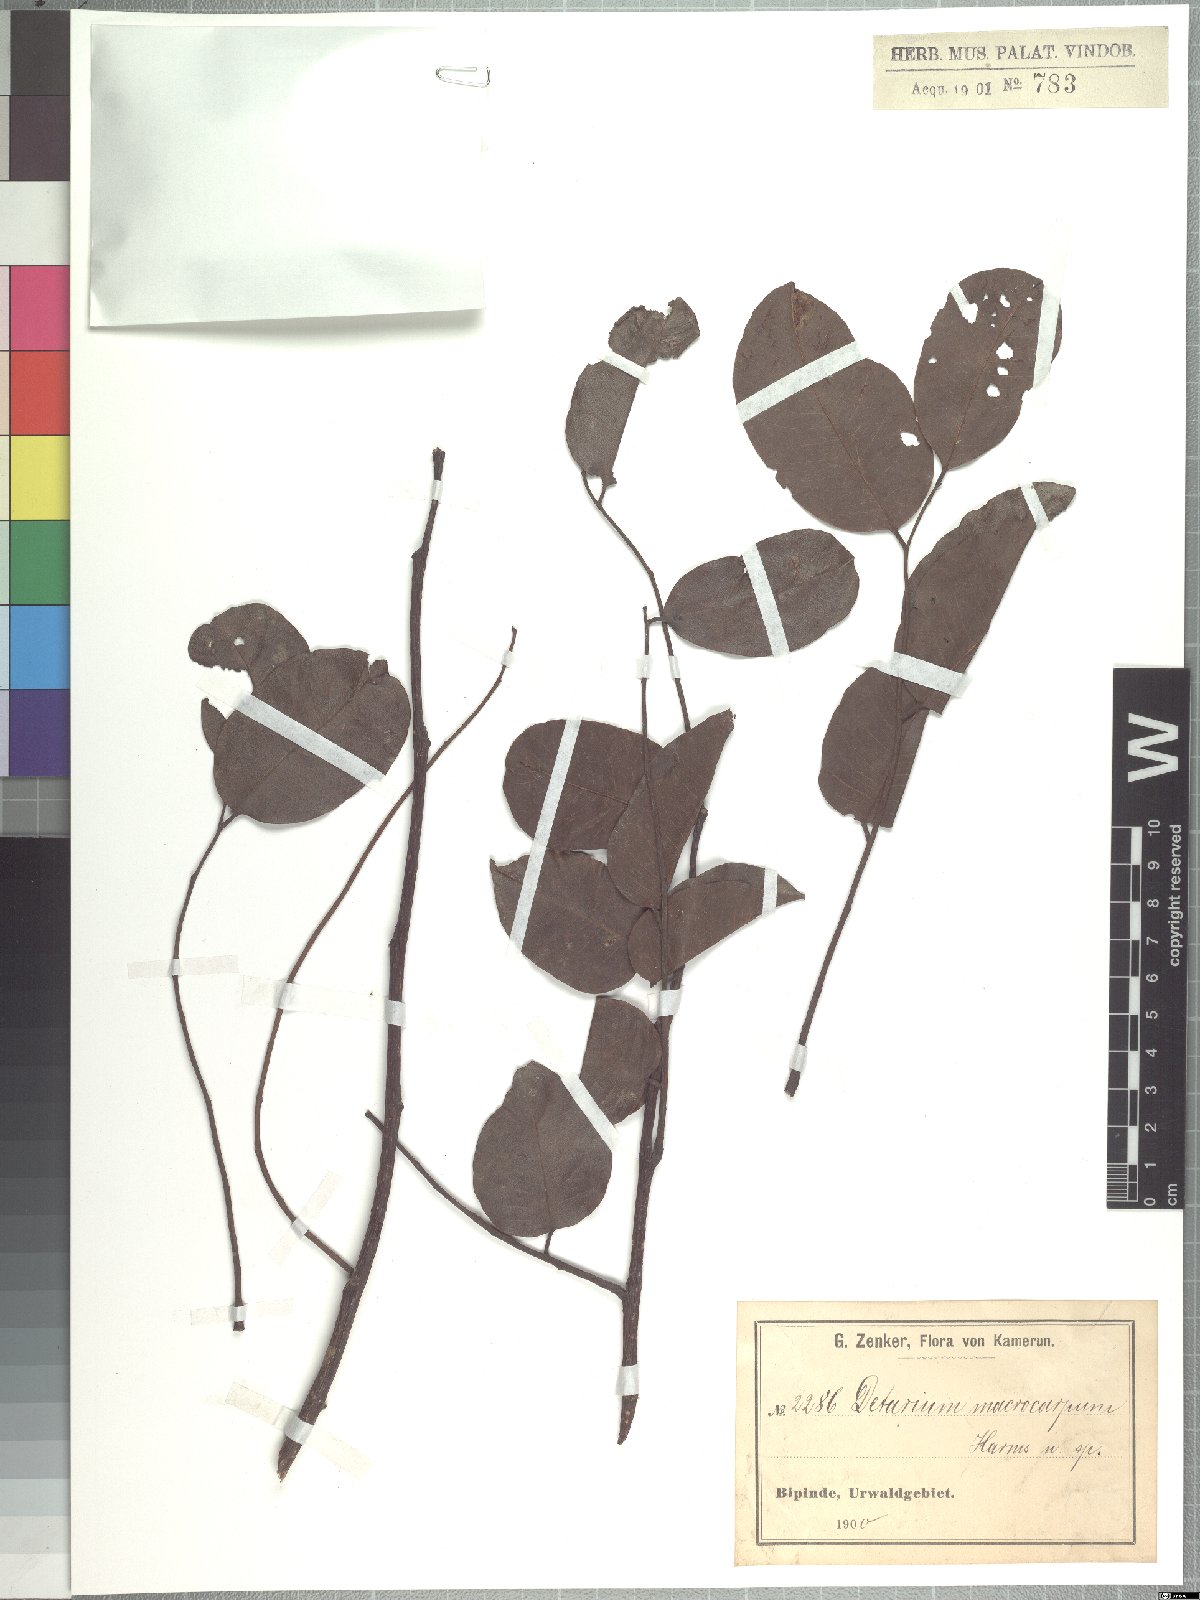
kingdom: Plantae
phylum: Tracheophyta
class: Magnoliopsida
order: Fabales
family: Fabaceae
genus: Detarium
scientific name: Detarium macrocarpum
